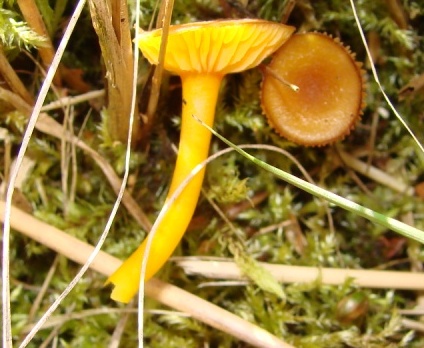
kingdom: Fungi
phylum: Basidiomycota
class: Agaricomycetes
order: Agaricales
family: Hygrophoraceae
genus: Hygrocybe
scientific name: Hygrocybe miniata
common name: mønje-vokshat
